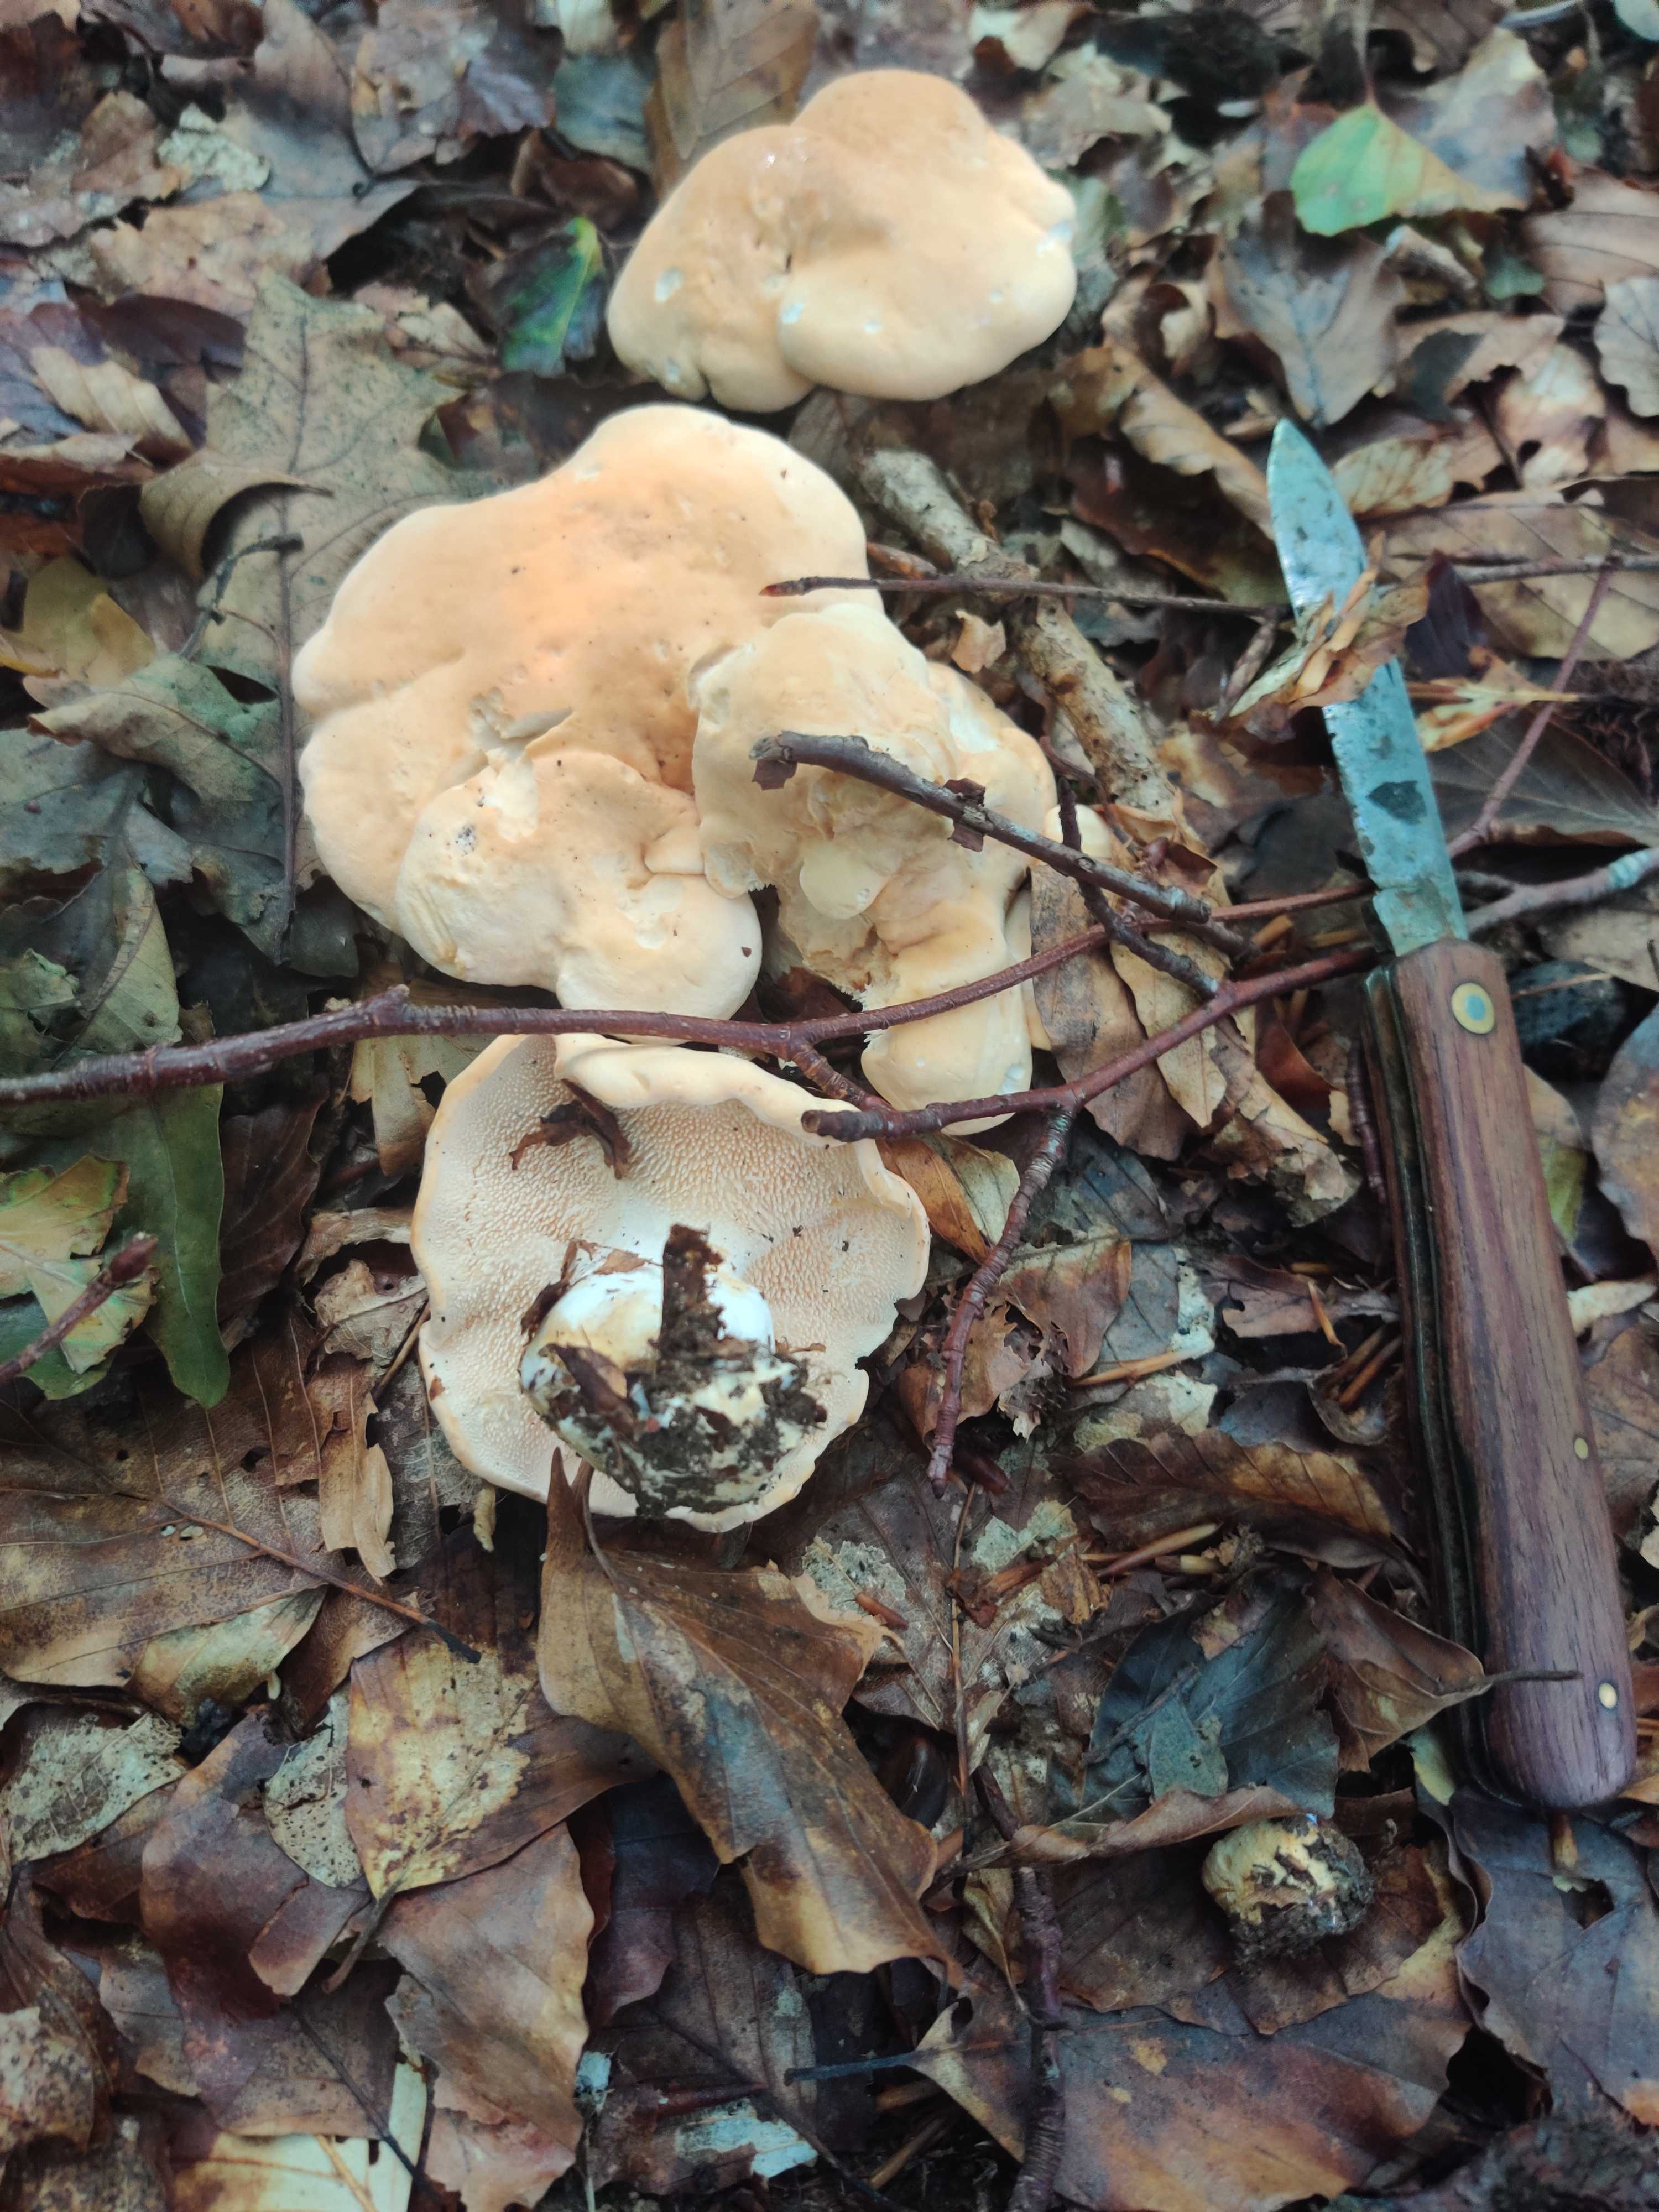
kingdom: Fungi
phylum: Basidiomycota
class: Agaricomycetes
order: Cantharellales
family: Hydnaceae
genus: Hydnum
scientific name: Hydnum
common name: pigsvamp
